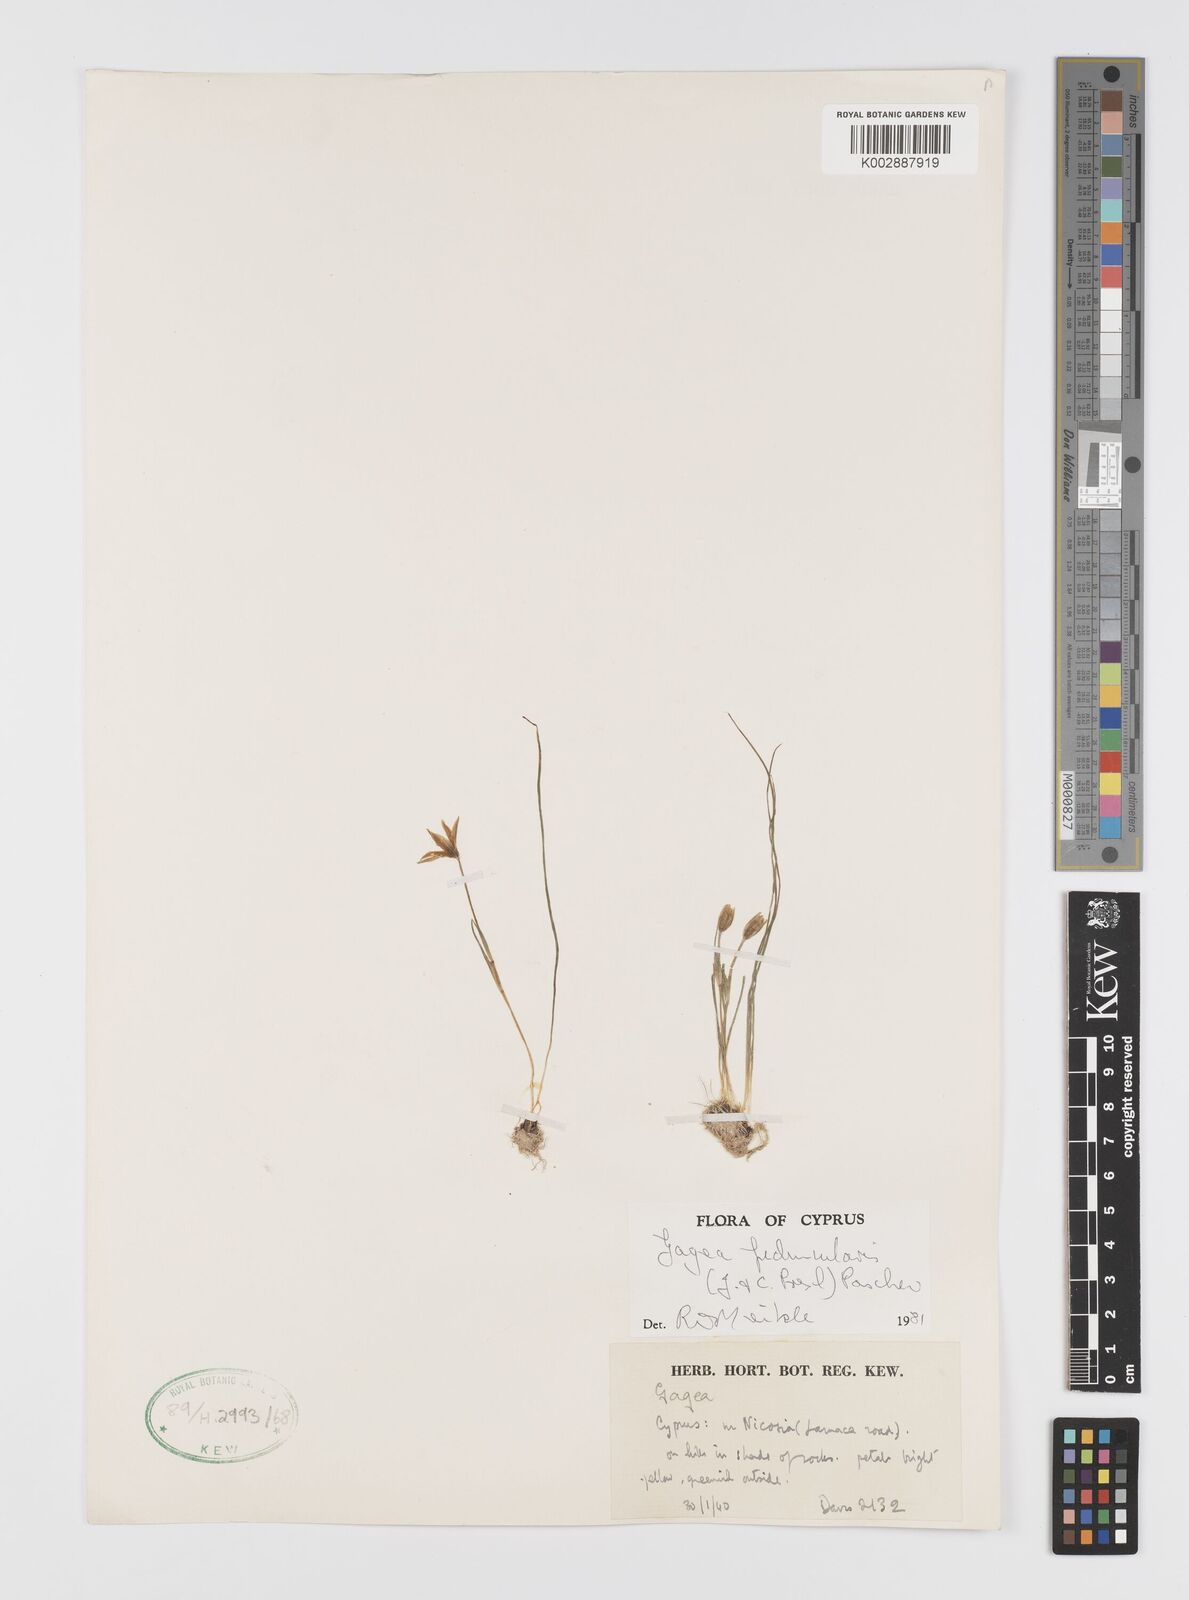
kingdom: Plantae
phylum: Tracheophyta
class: Liliopsida
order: Liliales
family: Liliaceae
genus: Gagea
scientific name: Gagea peduncularis
